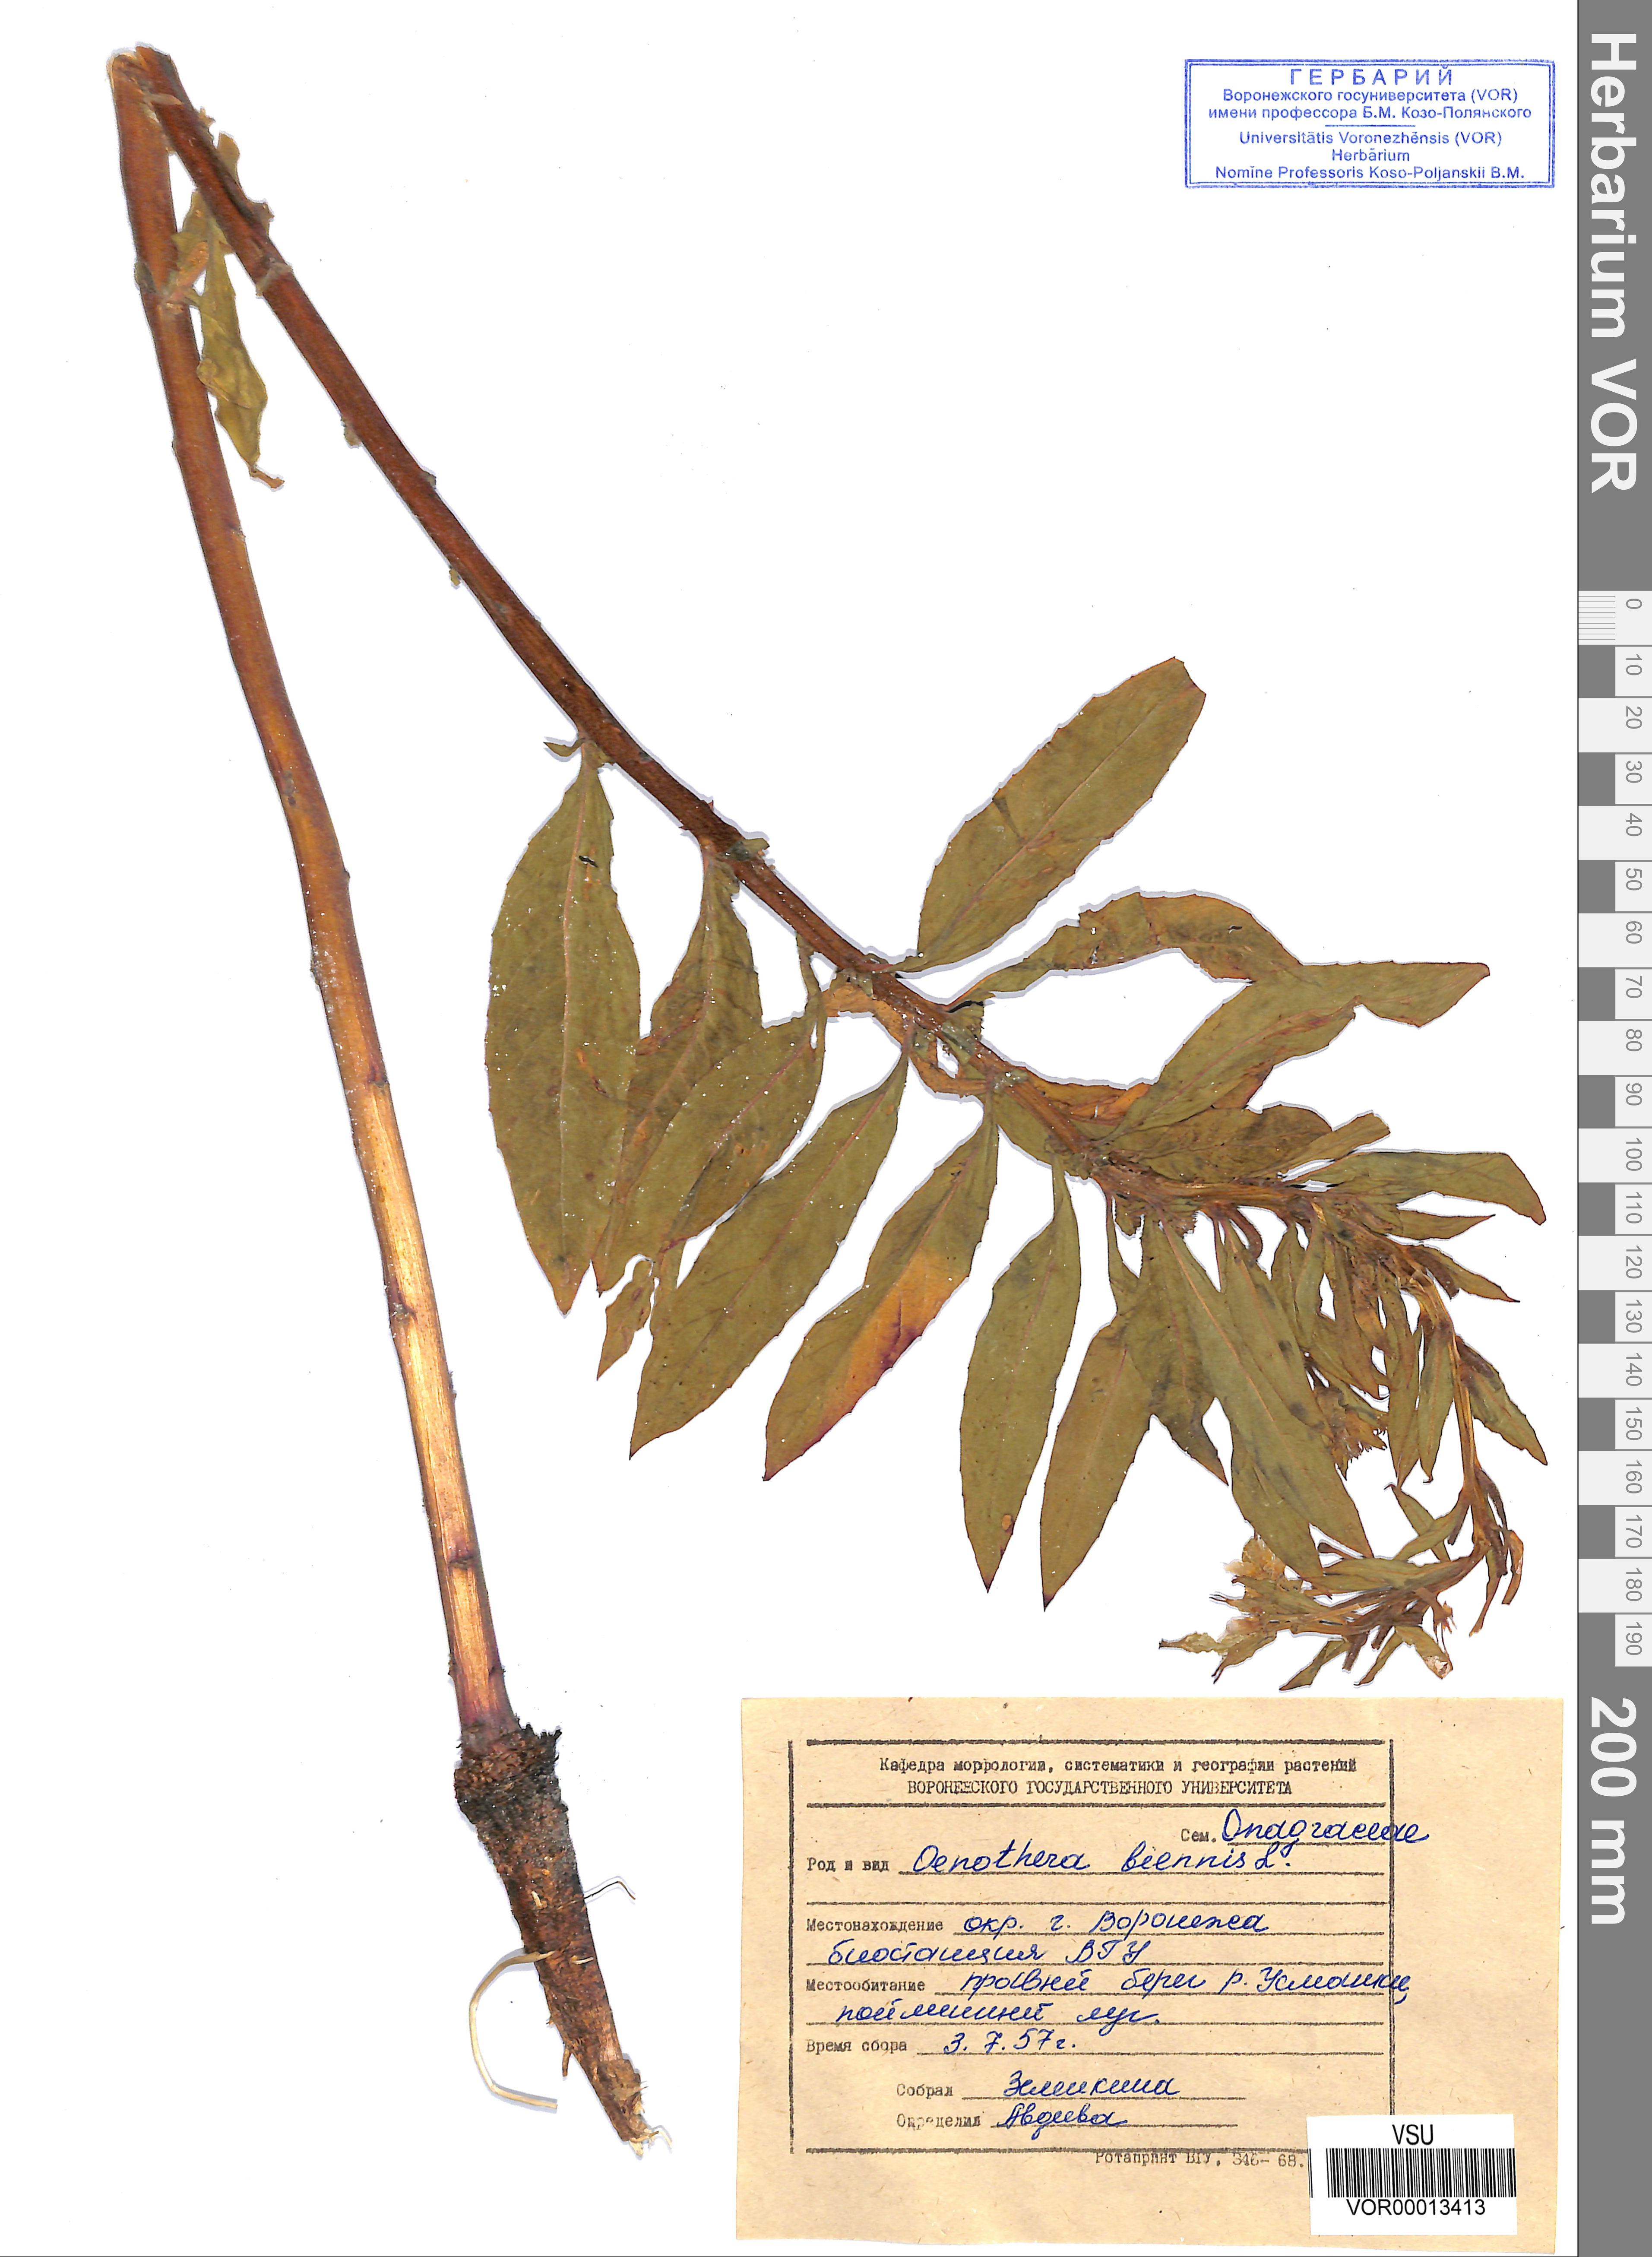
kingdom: Plantae
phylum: Tracheophyta
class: Magnoliopsida
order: Myrtales
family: Onagraceae
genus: Oenothera
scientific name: Oenothera biennis
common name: Common evening-primrose
